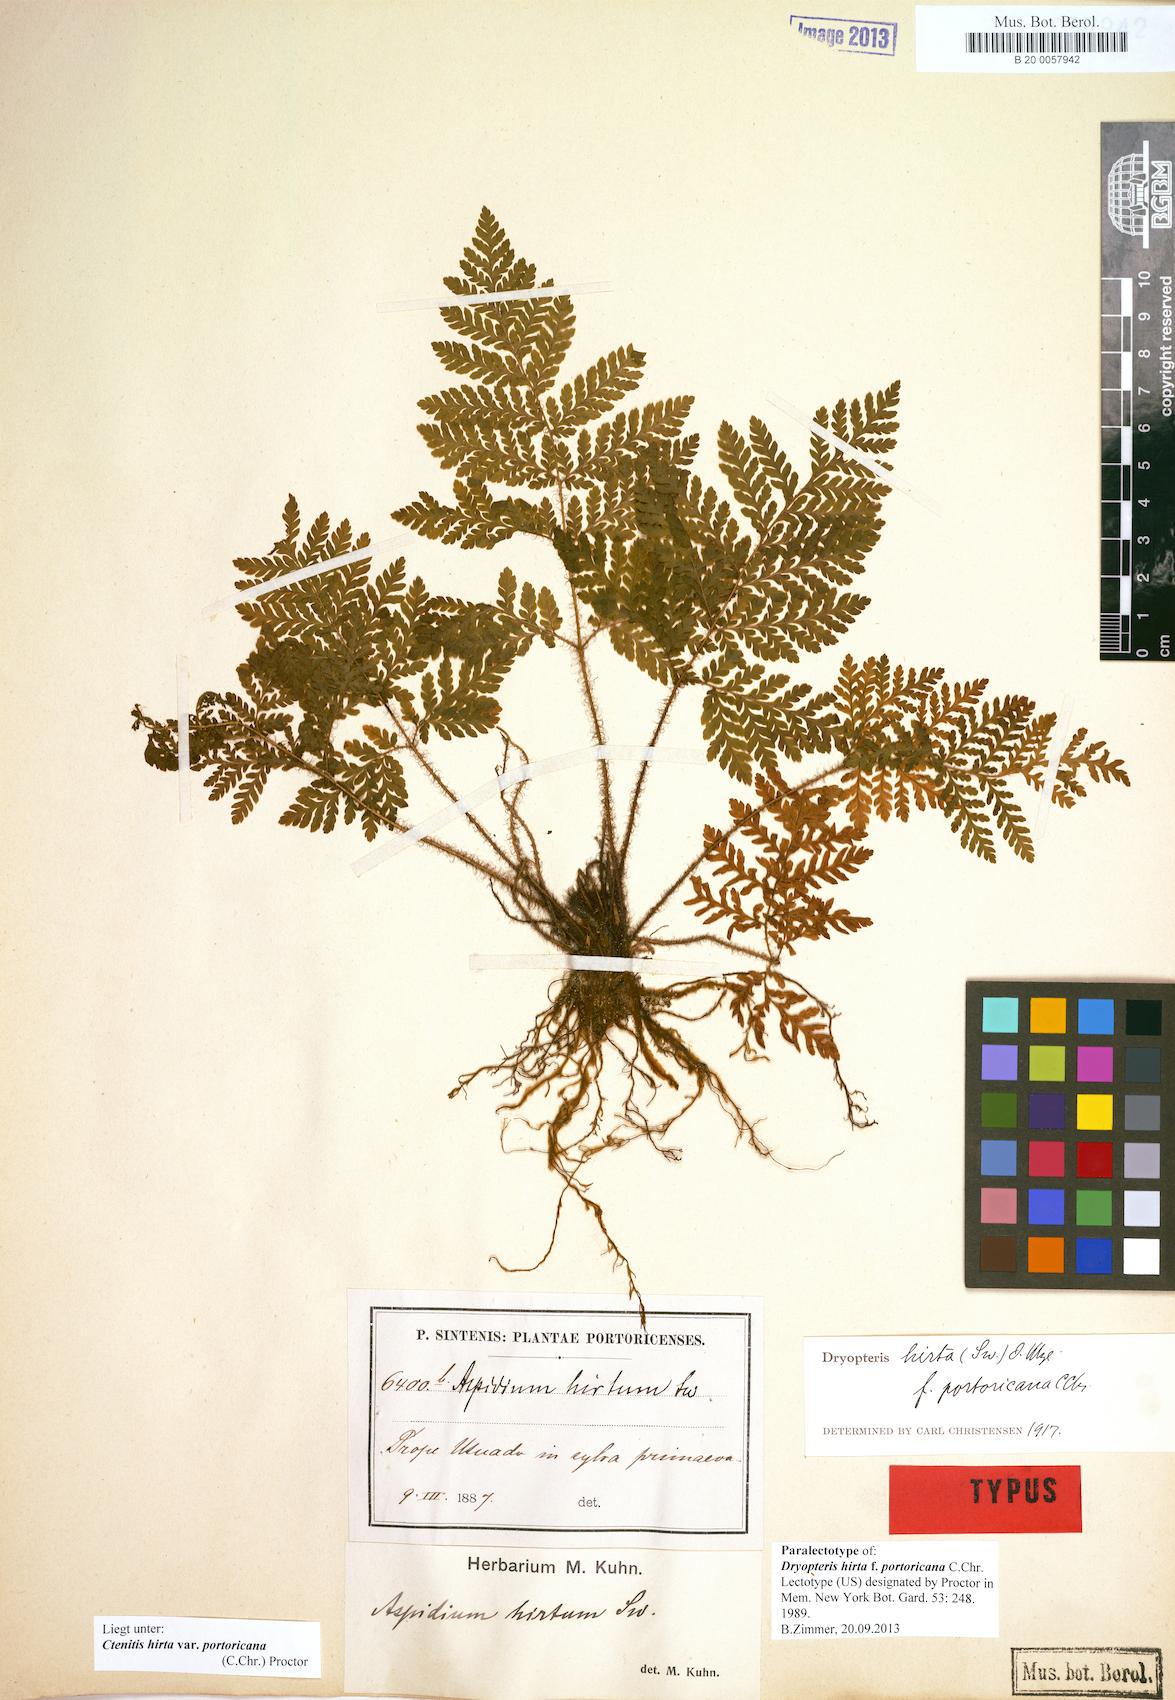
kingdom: Plantae
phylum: Tracheophyta
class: Polypodiopsida
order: Polypodiales
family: Dryopteridaceae
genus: Ctenitis
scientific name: Ctenitis hirta
